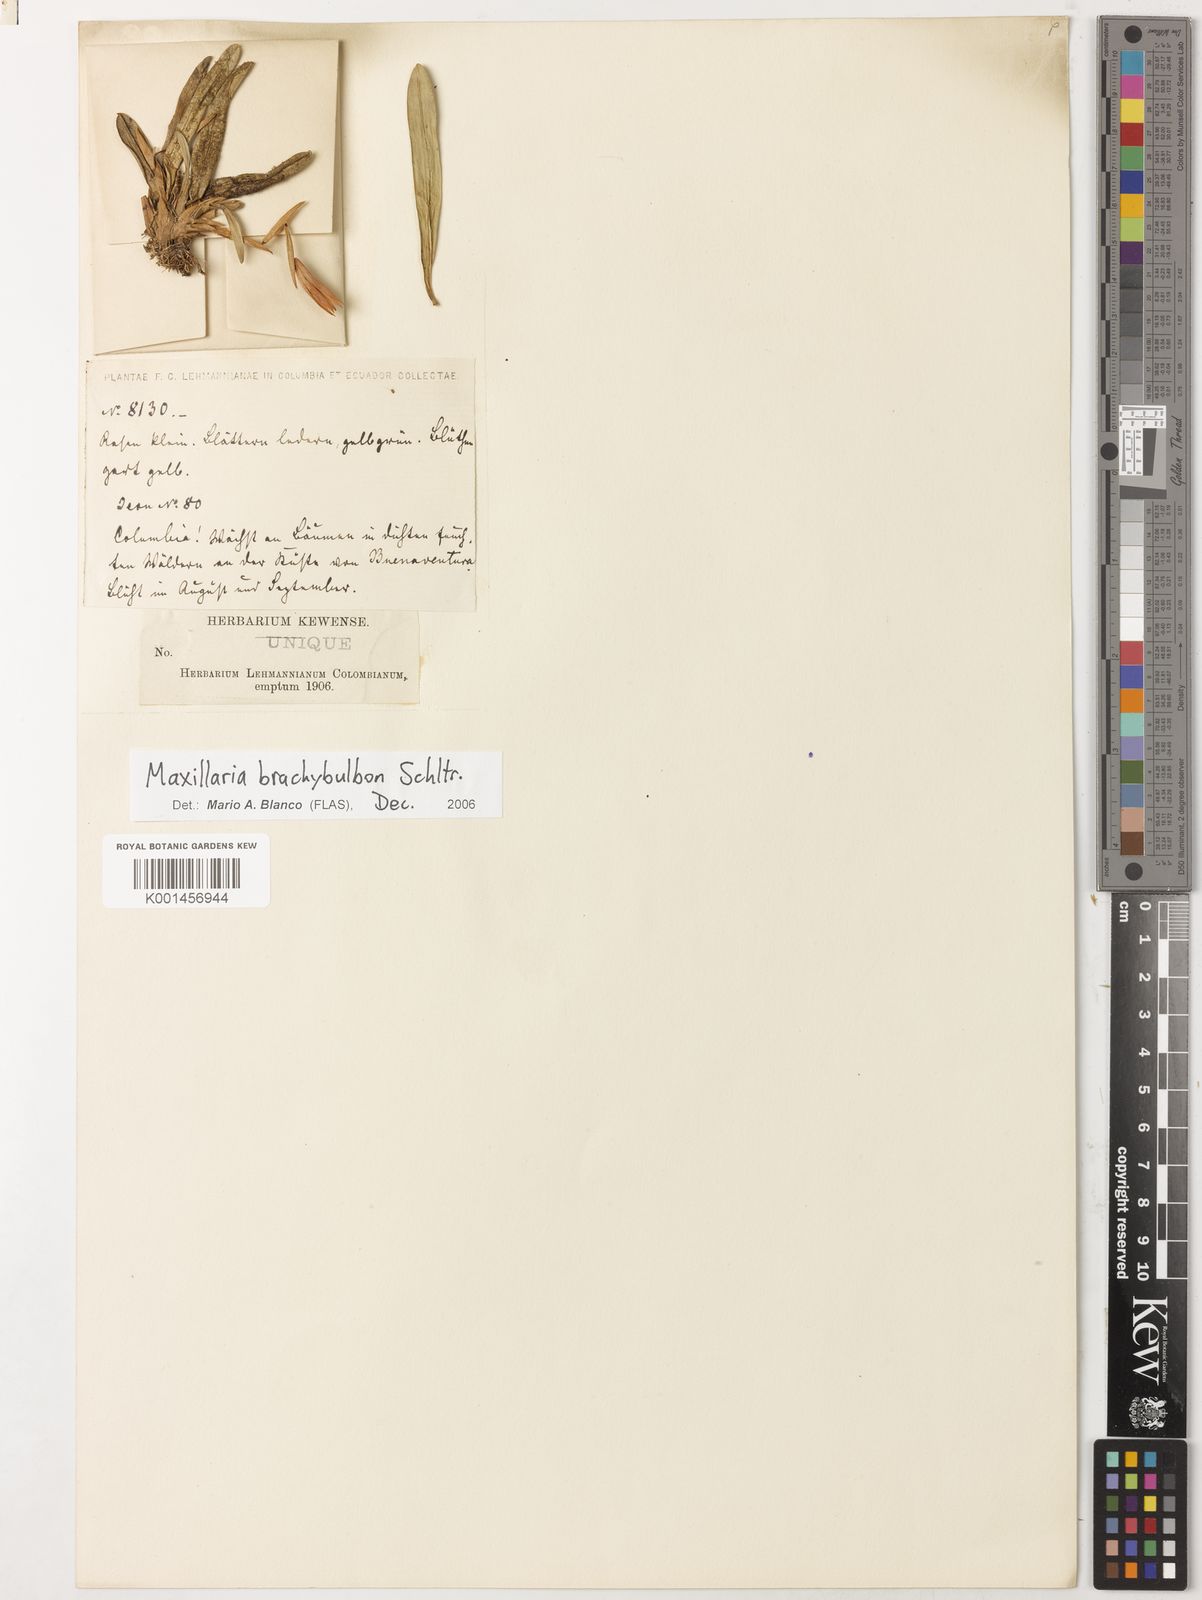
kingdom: Plantae
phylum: Tracheophyta
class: Liliopsida
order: Asparagales
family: Orchidaceae
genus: Maxillaria
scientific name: Maxillaria brachybulbon
